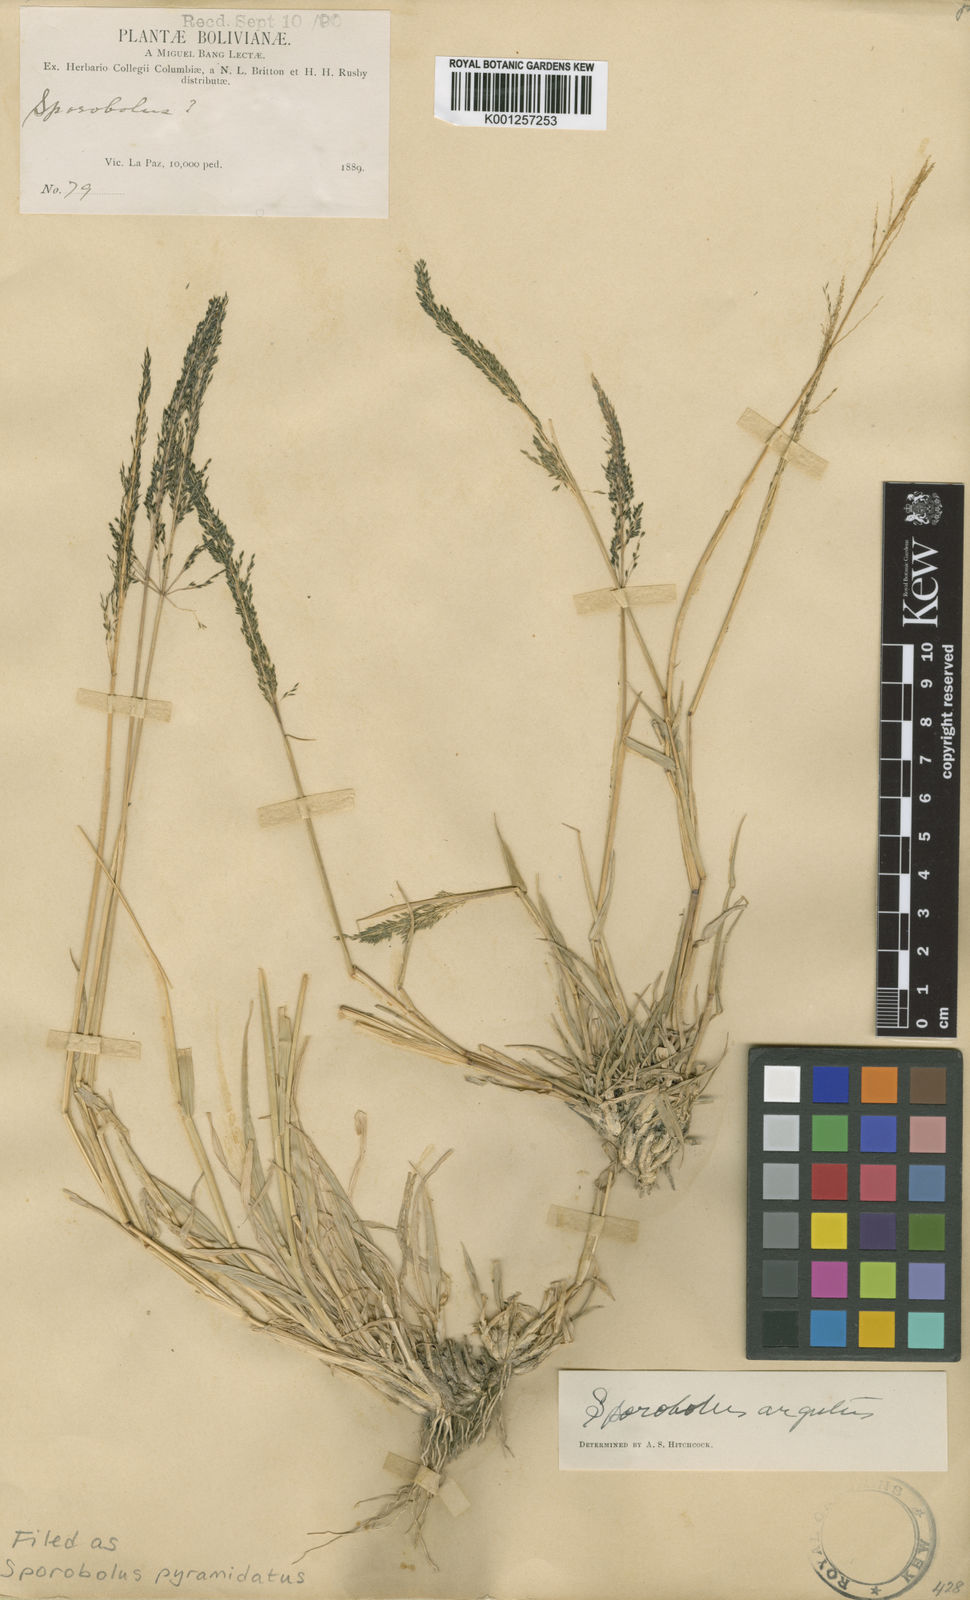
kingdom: Plantae
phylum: Tracheophyta
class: Liliopsida
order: Poales
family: Poaceae
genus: Sporobolus
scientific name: Sporobolus pyramidatus
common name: Whorled dropseed
